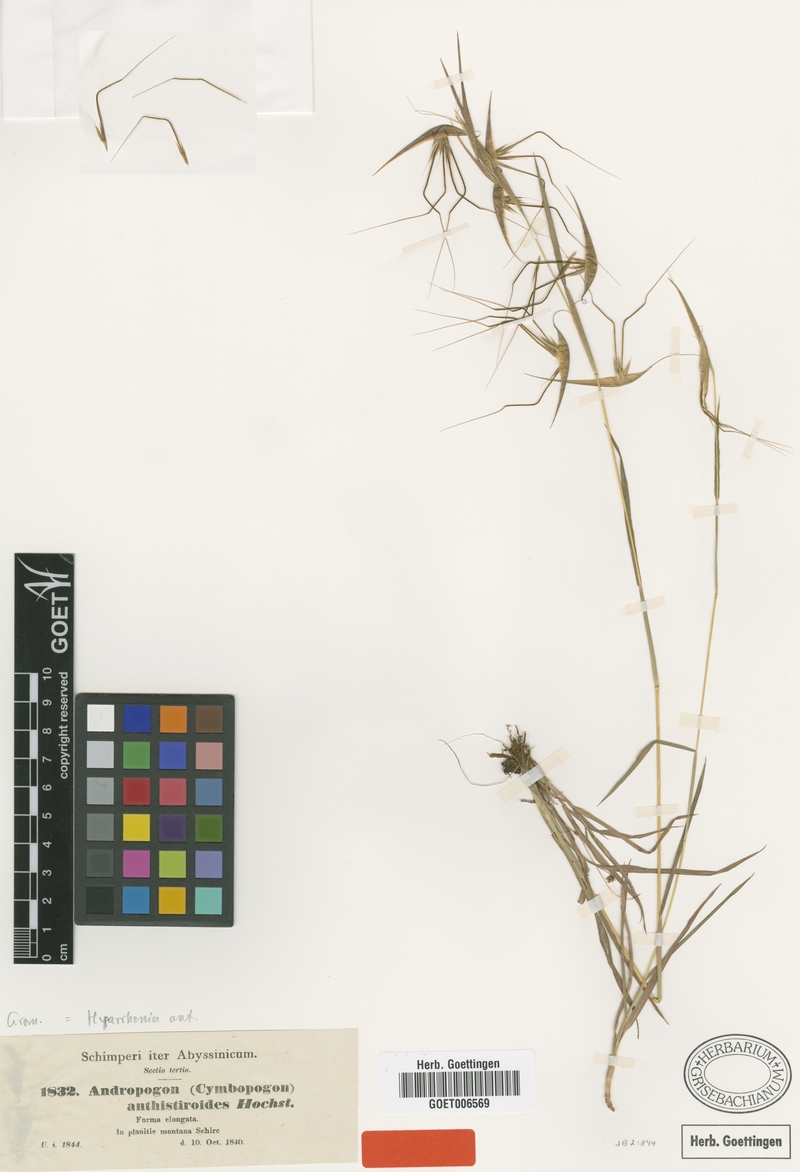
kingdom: Plantae
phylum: Tracheophyta
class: Liliopsida
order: Poales
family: Poaceae
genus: Hyparrhenia
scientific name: Hyparrhenia anthistirioides
